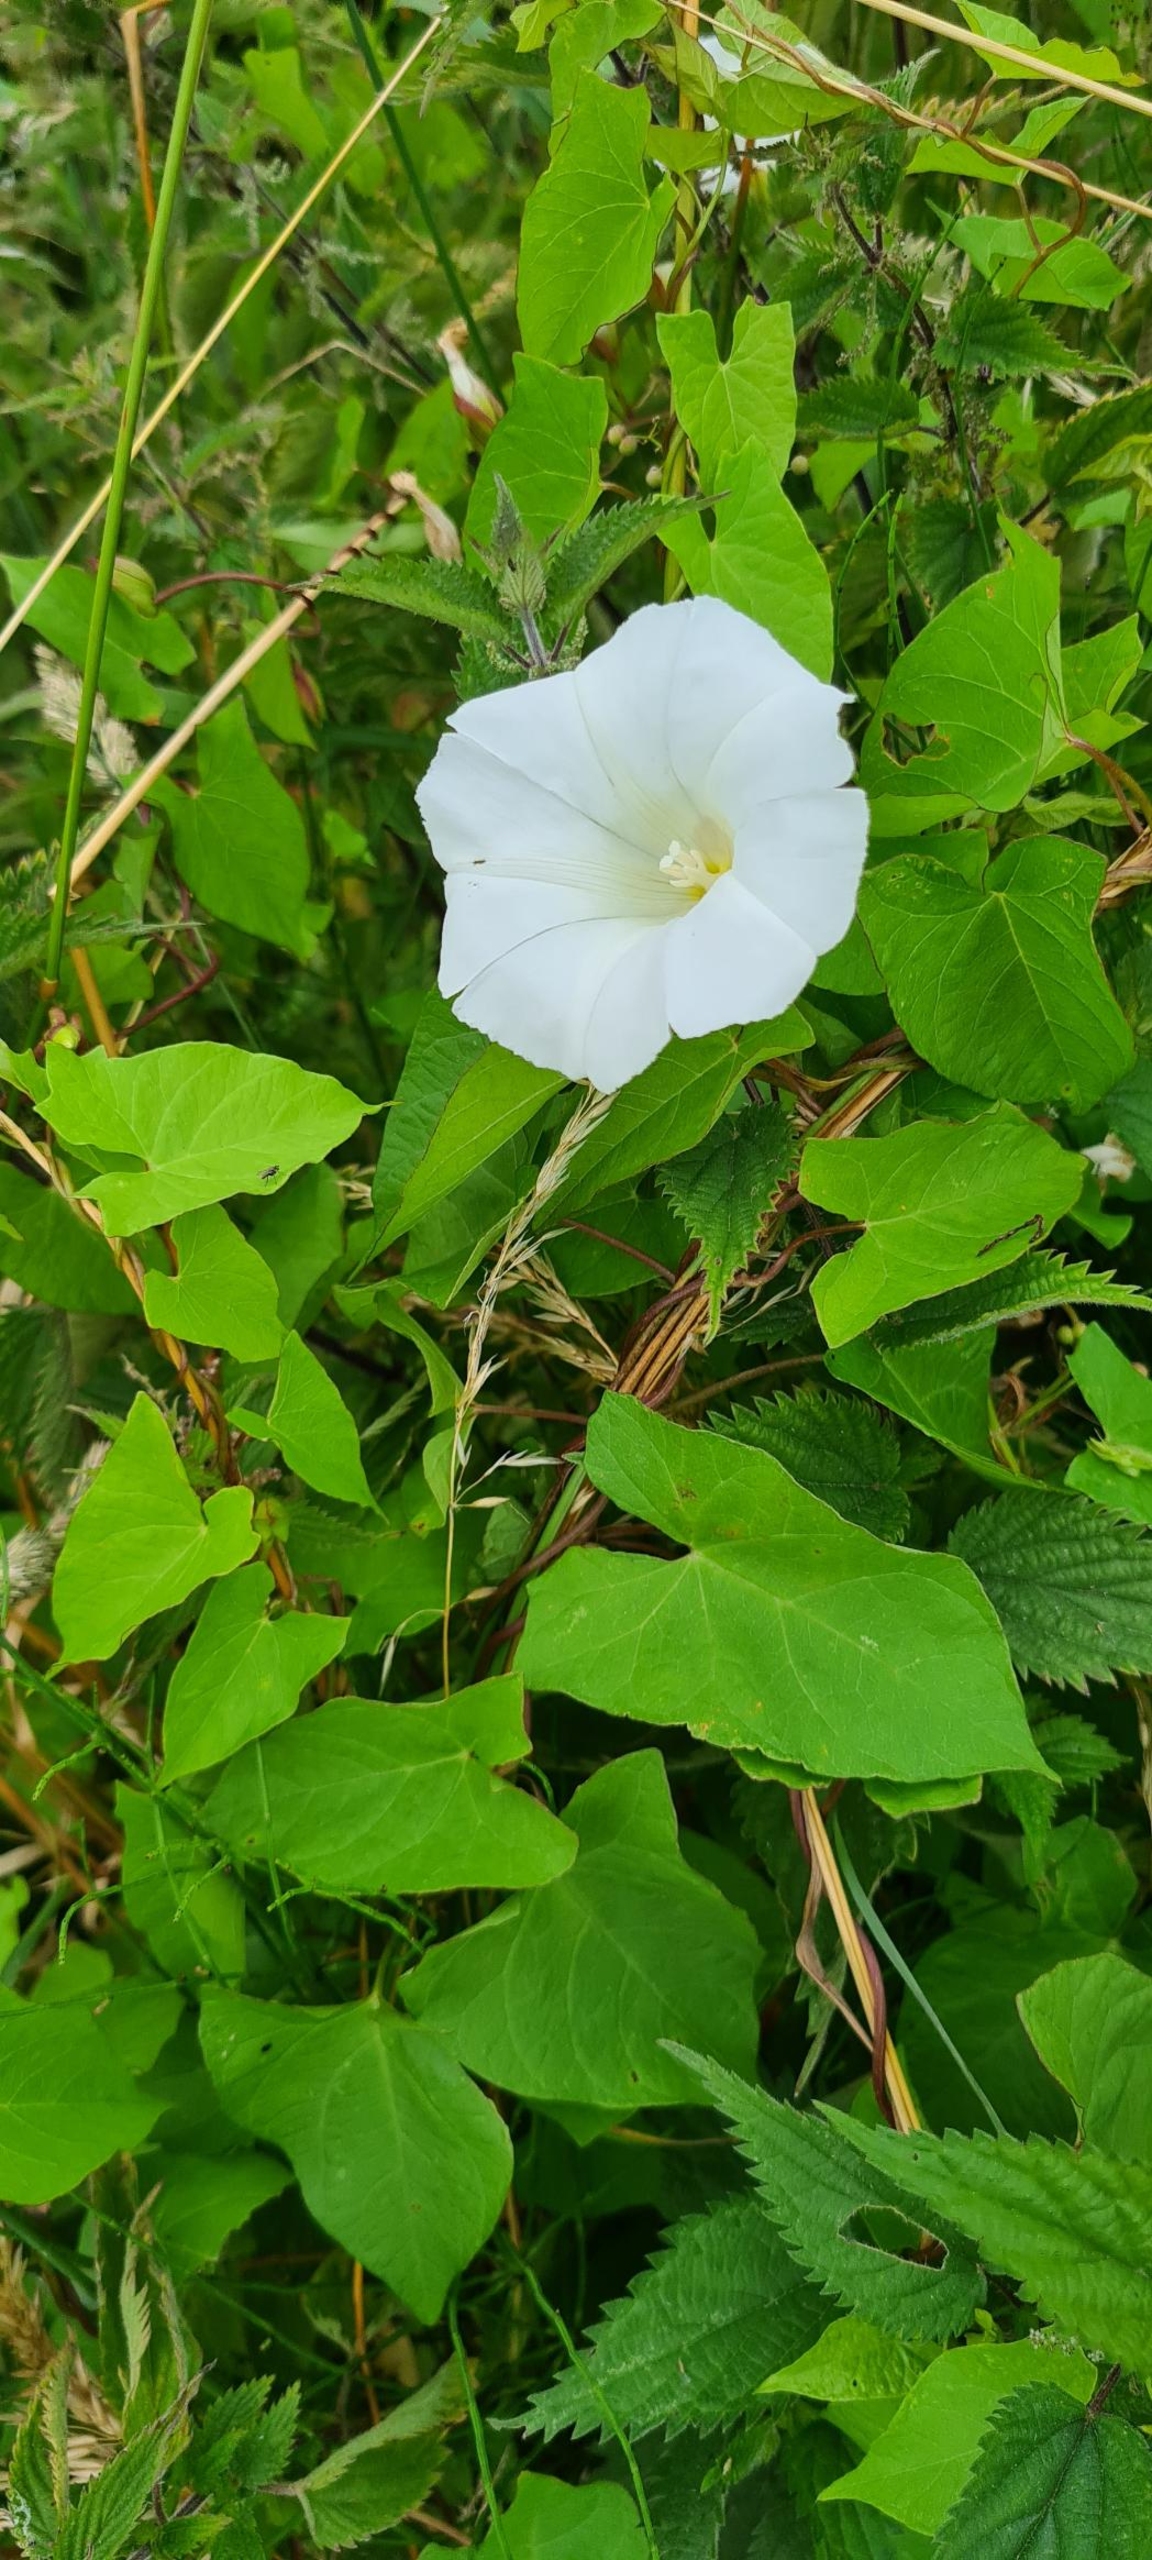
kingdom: Plantae
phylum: Tracheophyta
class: Magnoliopsida
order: Solanales
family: Convolvulaceae
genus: Calystegia
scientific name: Calystegia sepium
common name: Gærde-snerle
